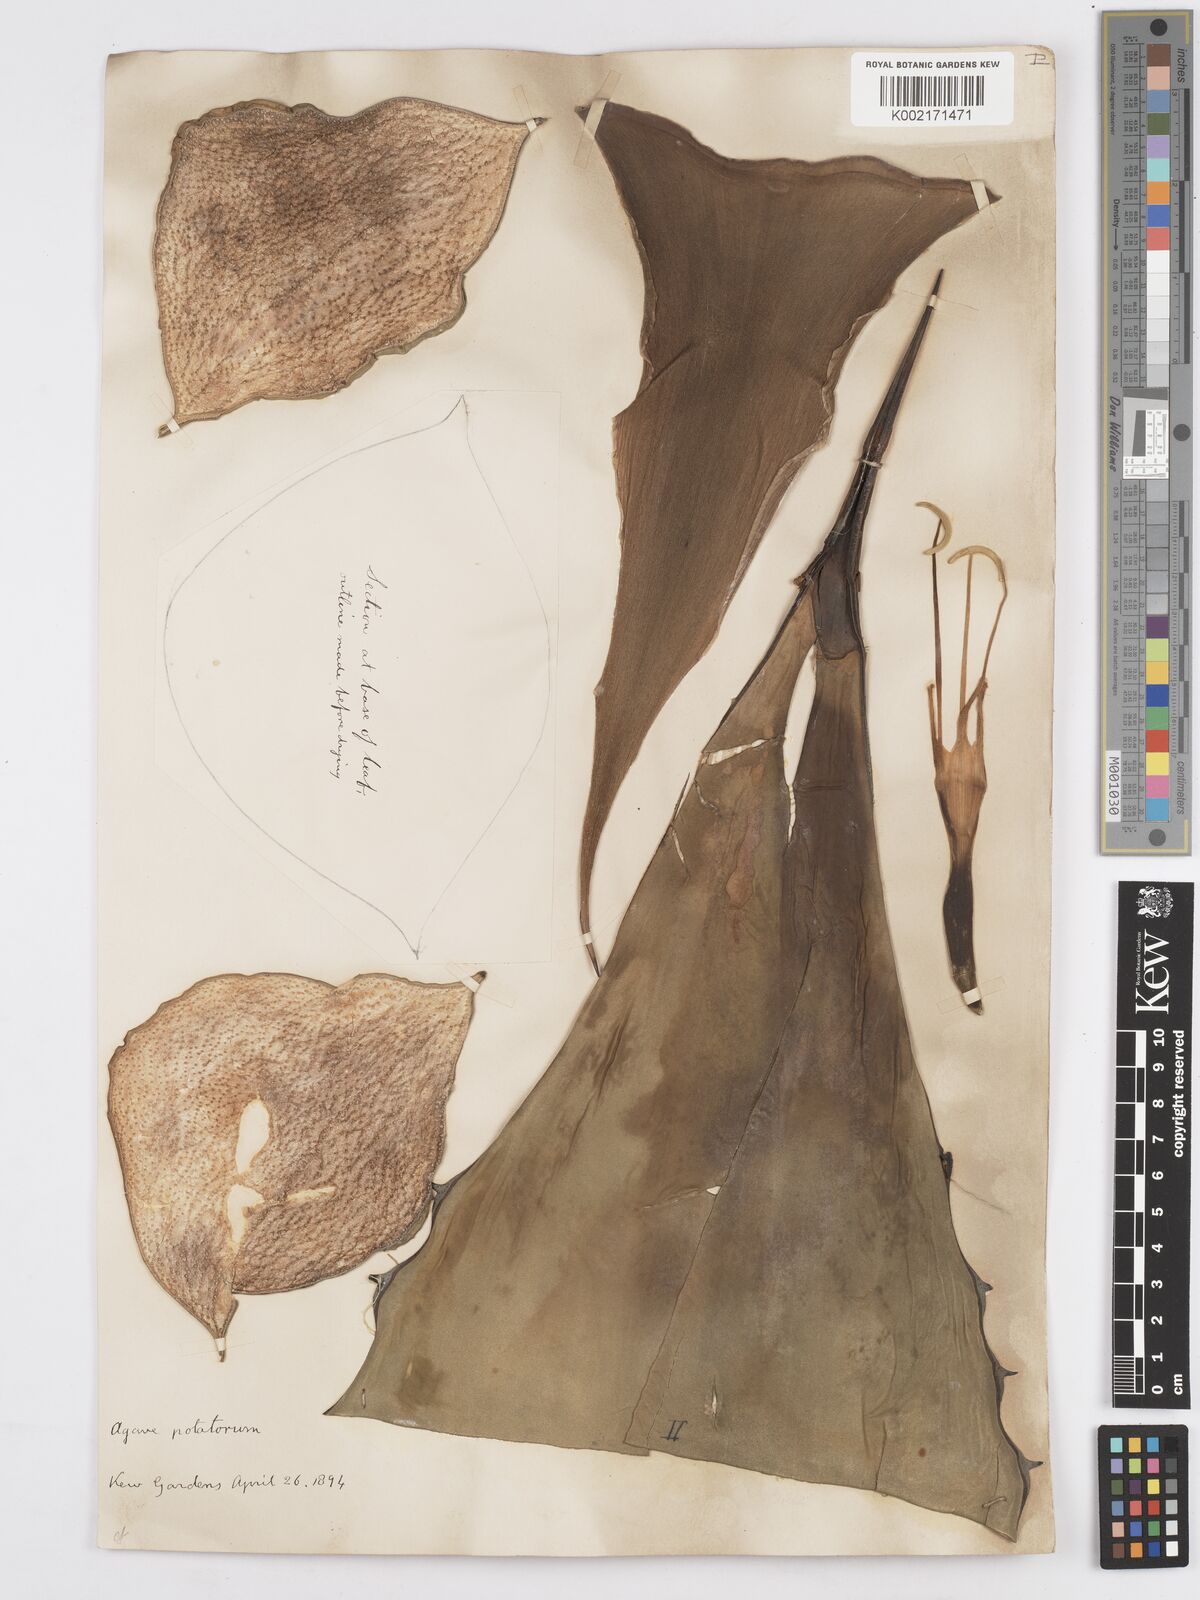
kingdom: Plantae
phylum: Tracheophyta
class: Liliopsida
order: Asparagales
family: Asparagaceae
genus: Agave
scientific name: Agave potatorum
